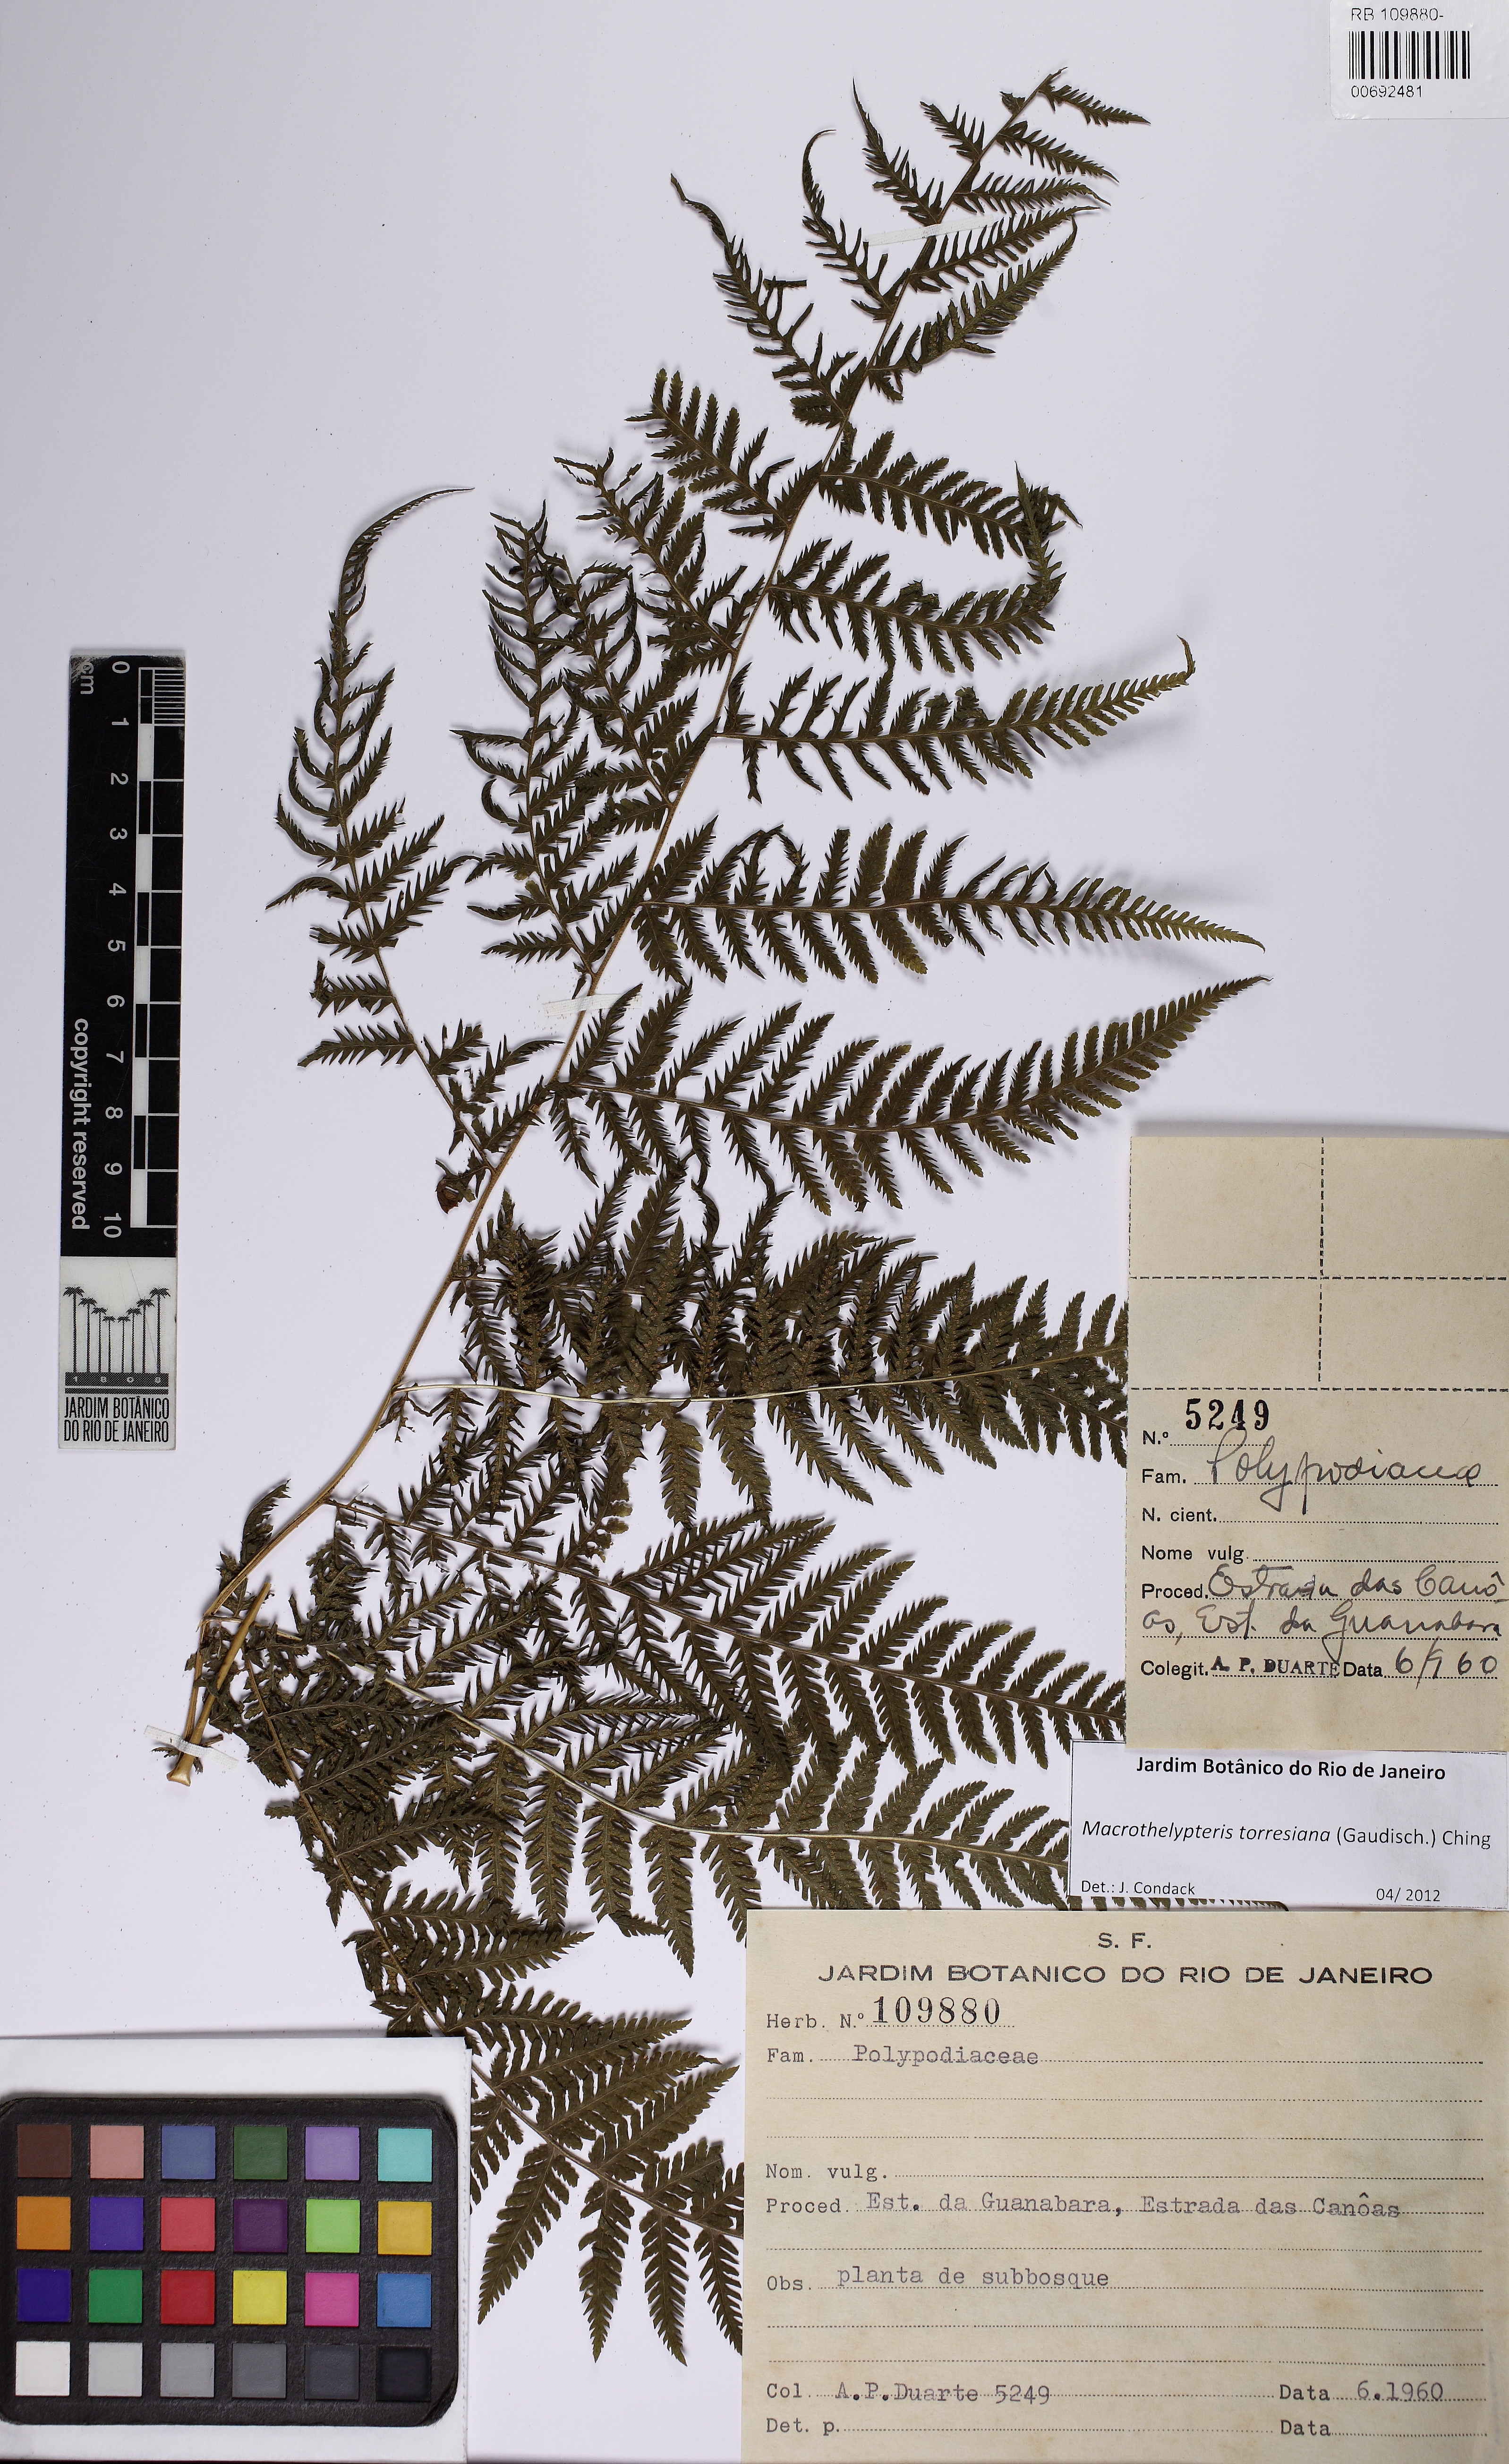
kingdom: Plantae
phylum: Tracheophyta
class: Polypodiopsida
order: Polypodiales
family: Thelypteridaceae
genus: Macrothelypteris
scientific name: Macrothelypteris torresiana
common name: Swordfern
